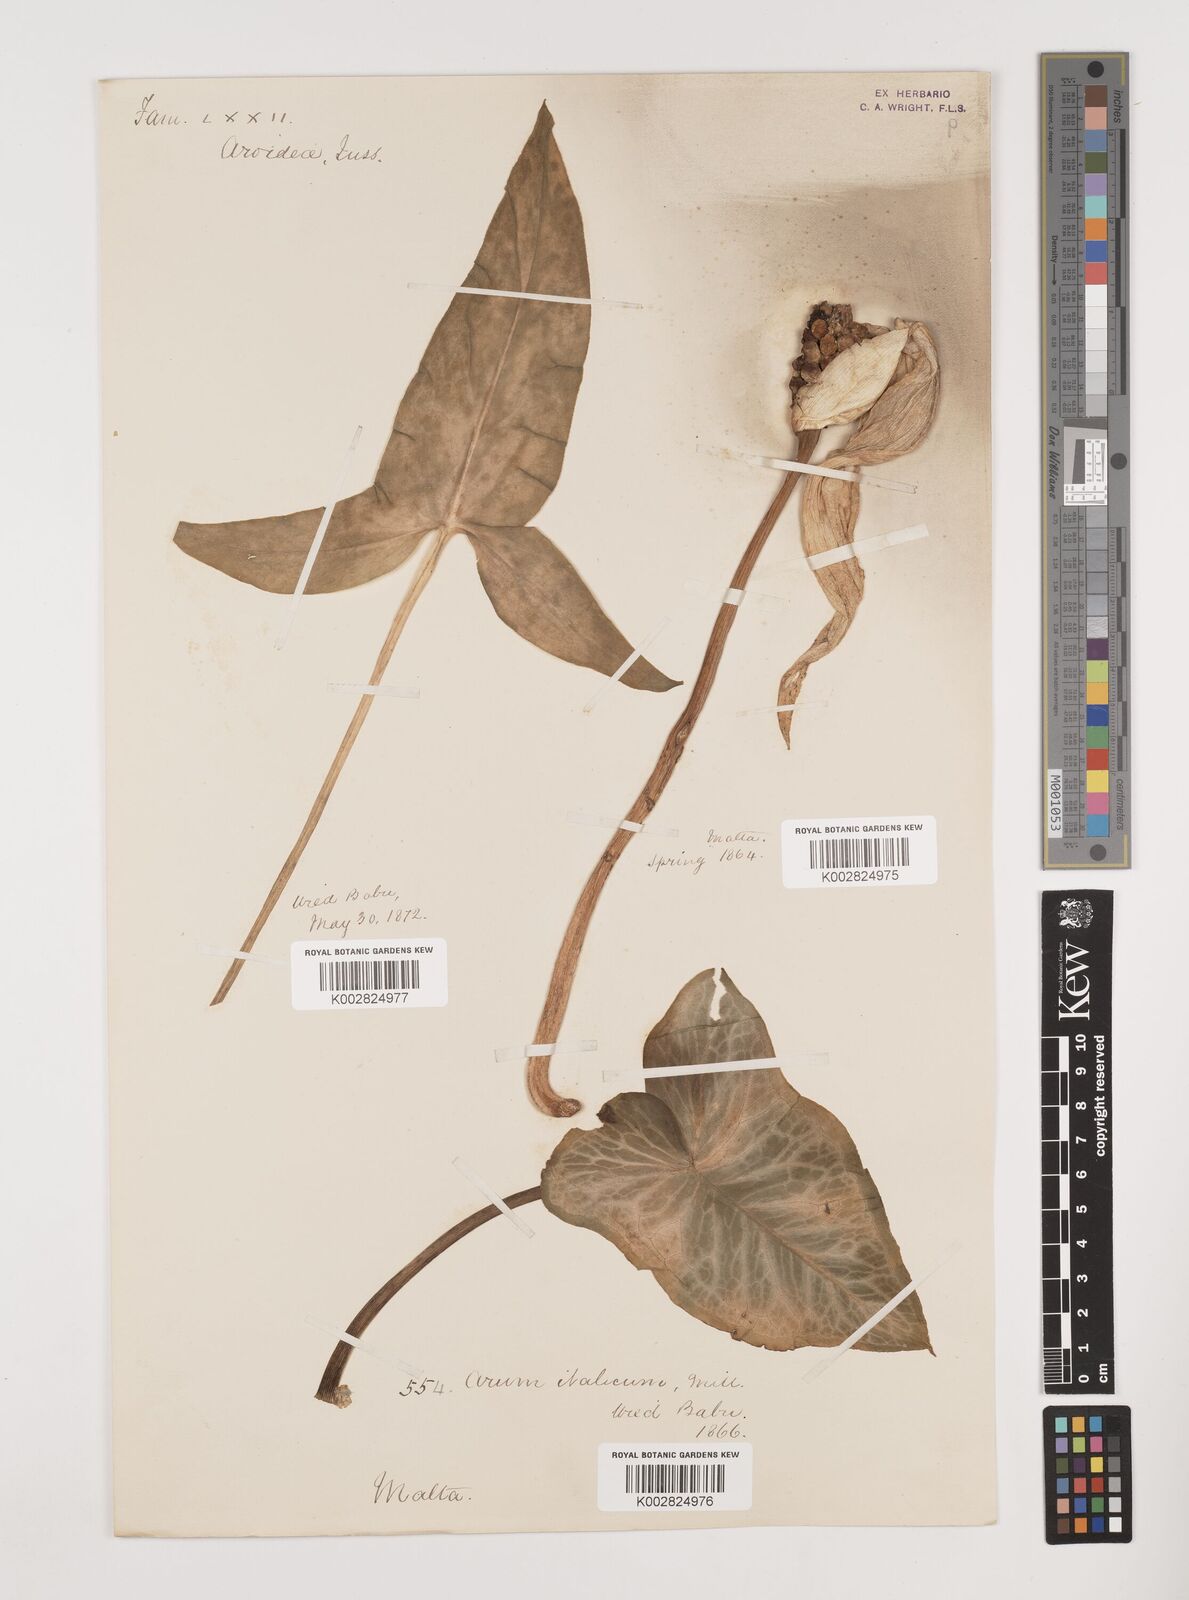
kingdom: Plantae
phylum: Tracheophyta
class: Liliopsida
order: Alismatales
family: Araceae
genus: Arum
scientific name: Arum italicum
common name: Italian lords-and-ladies
